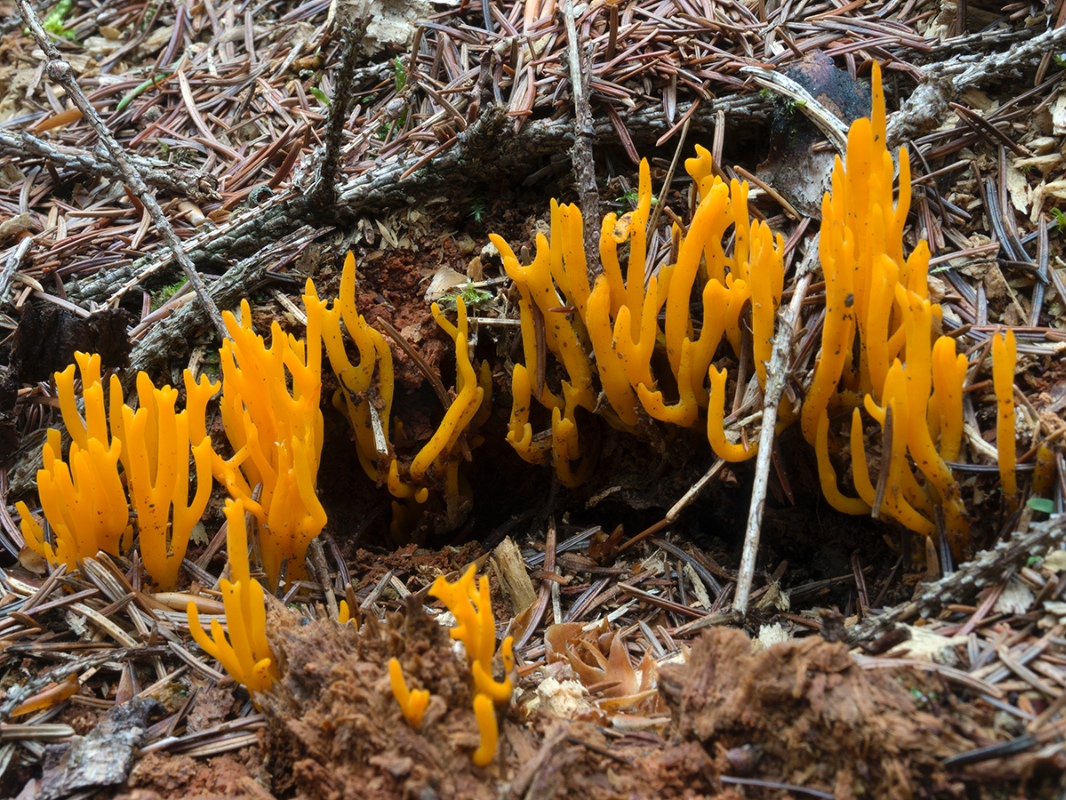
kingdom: Fungi
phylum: Basidiomycota
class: Dacrymycetes
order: Dacrymycetales
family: Dacrymycetaceae
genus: Calocera
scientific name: Calocera viscosa
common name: almindelig guldgaffel
